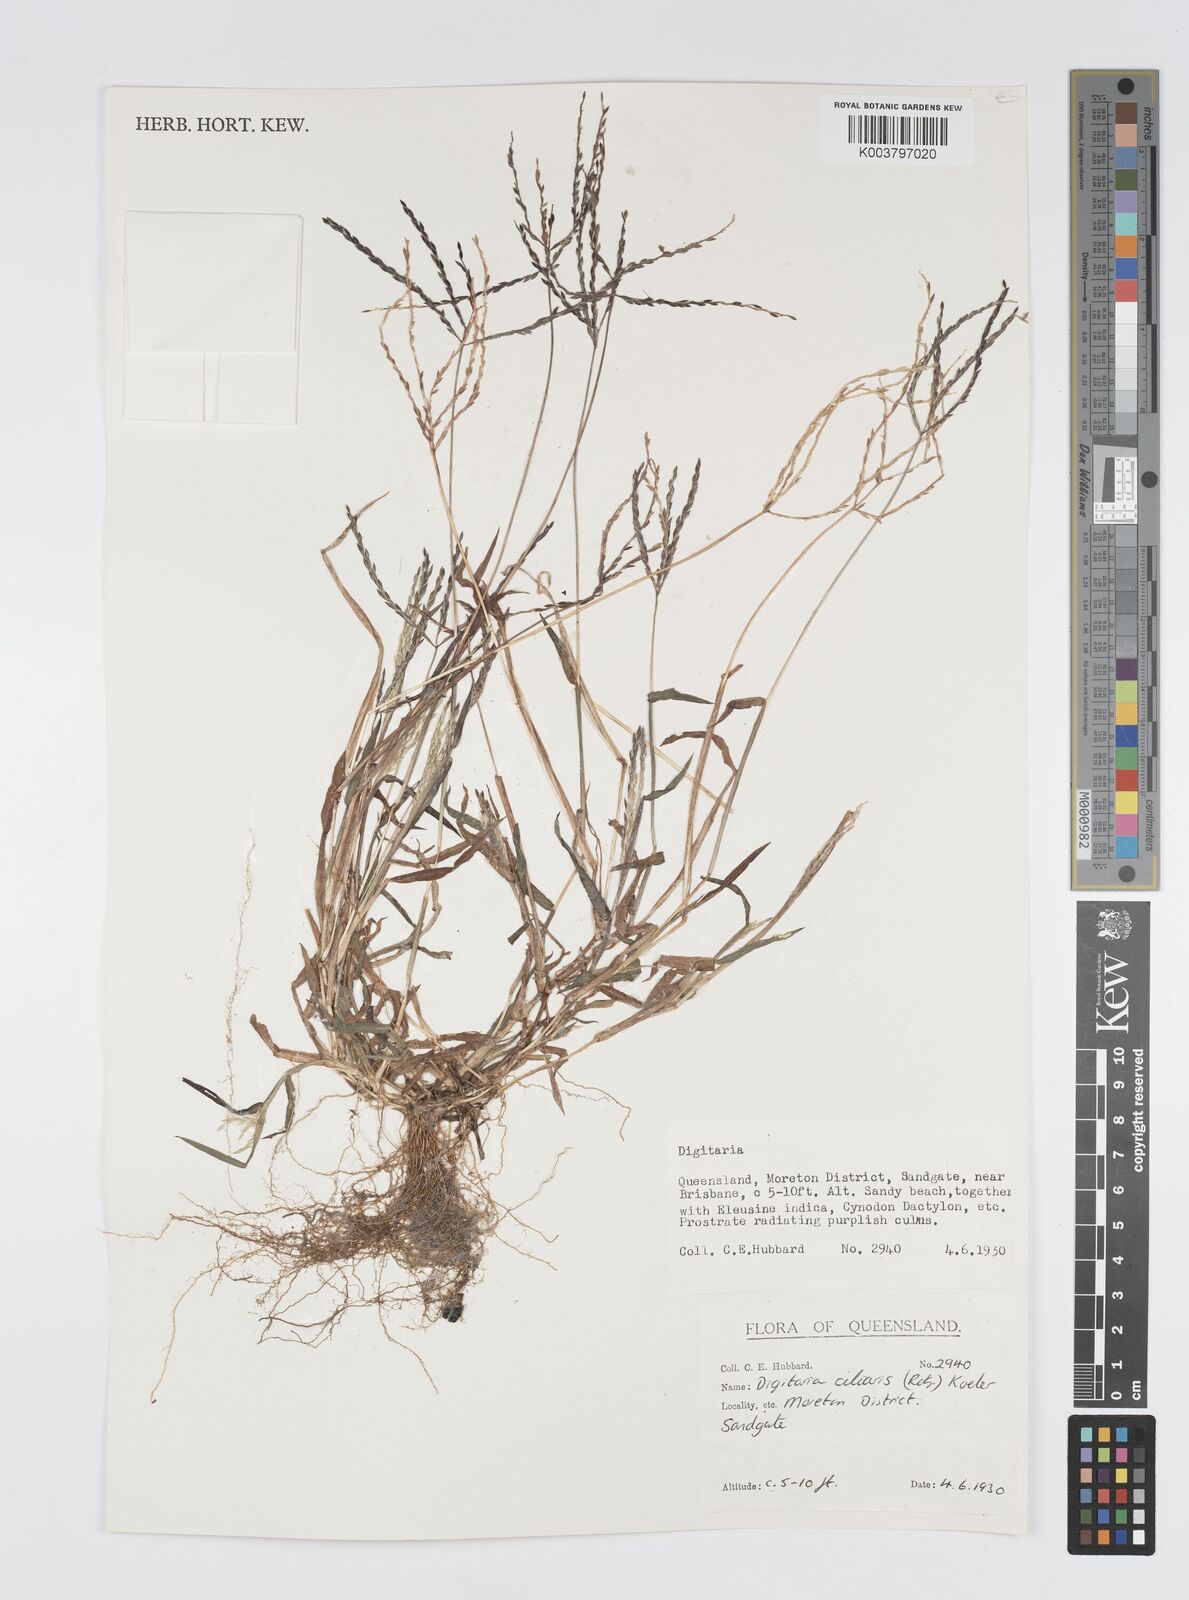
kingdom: Plantae
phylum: Tracheophyta
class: Liliopsida
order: Poales
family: Poaceae
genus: Digitaria
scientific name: Digitaria ciliaris
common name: Tropical finger-grass
